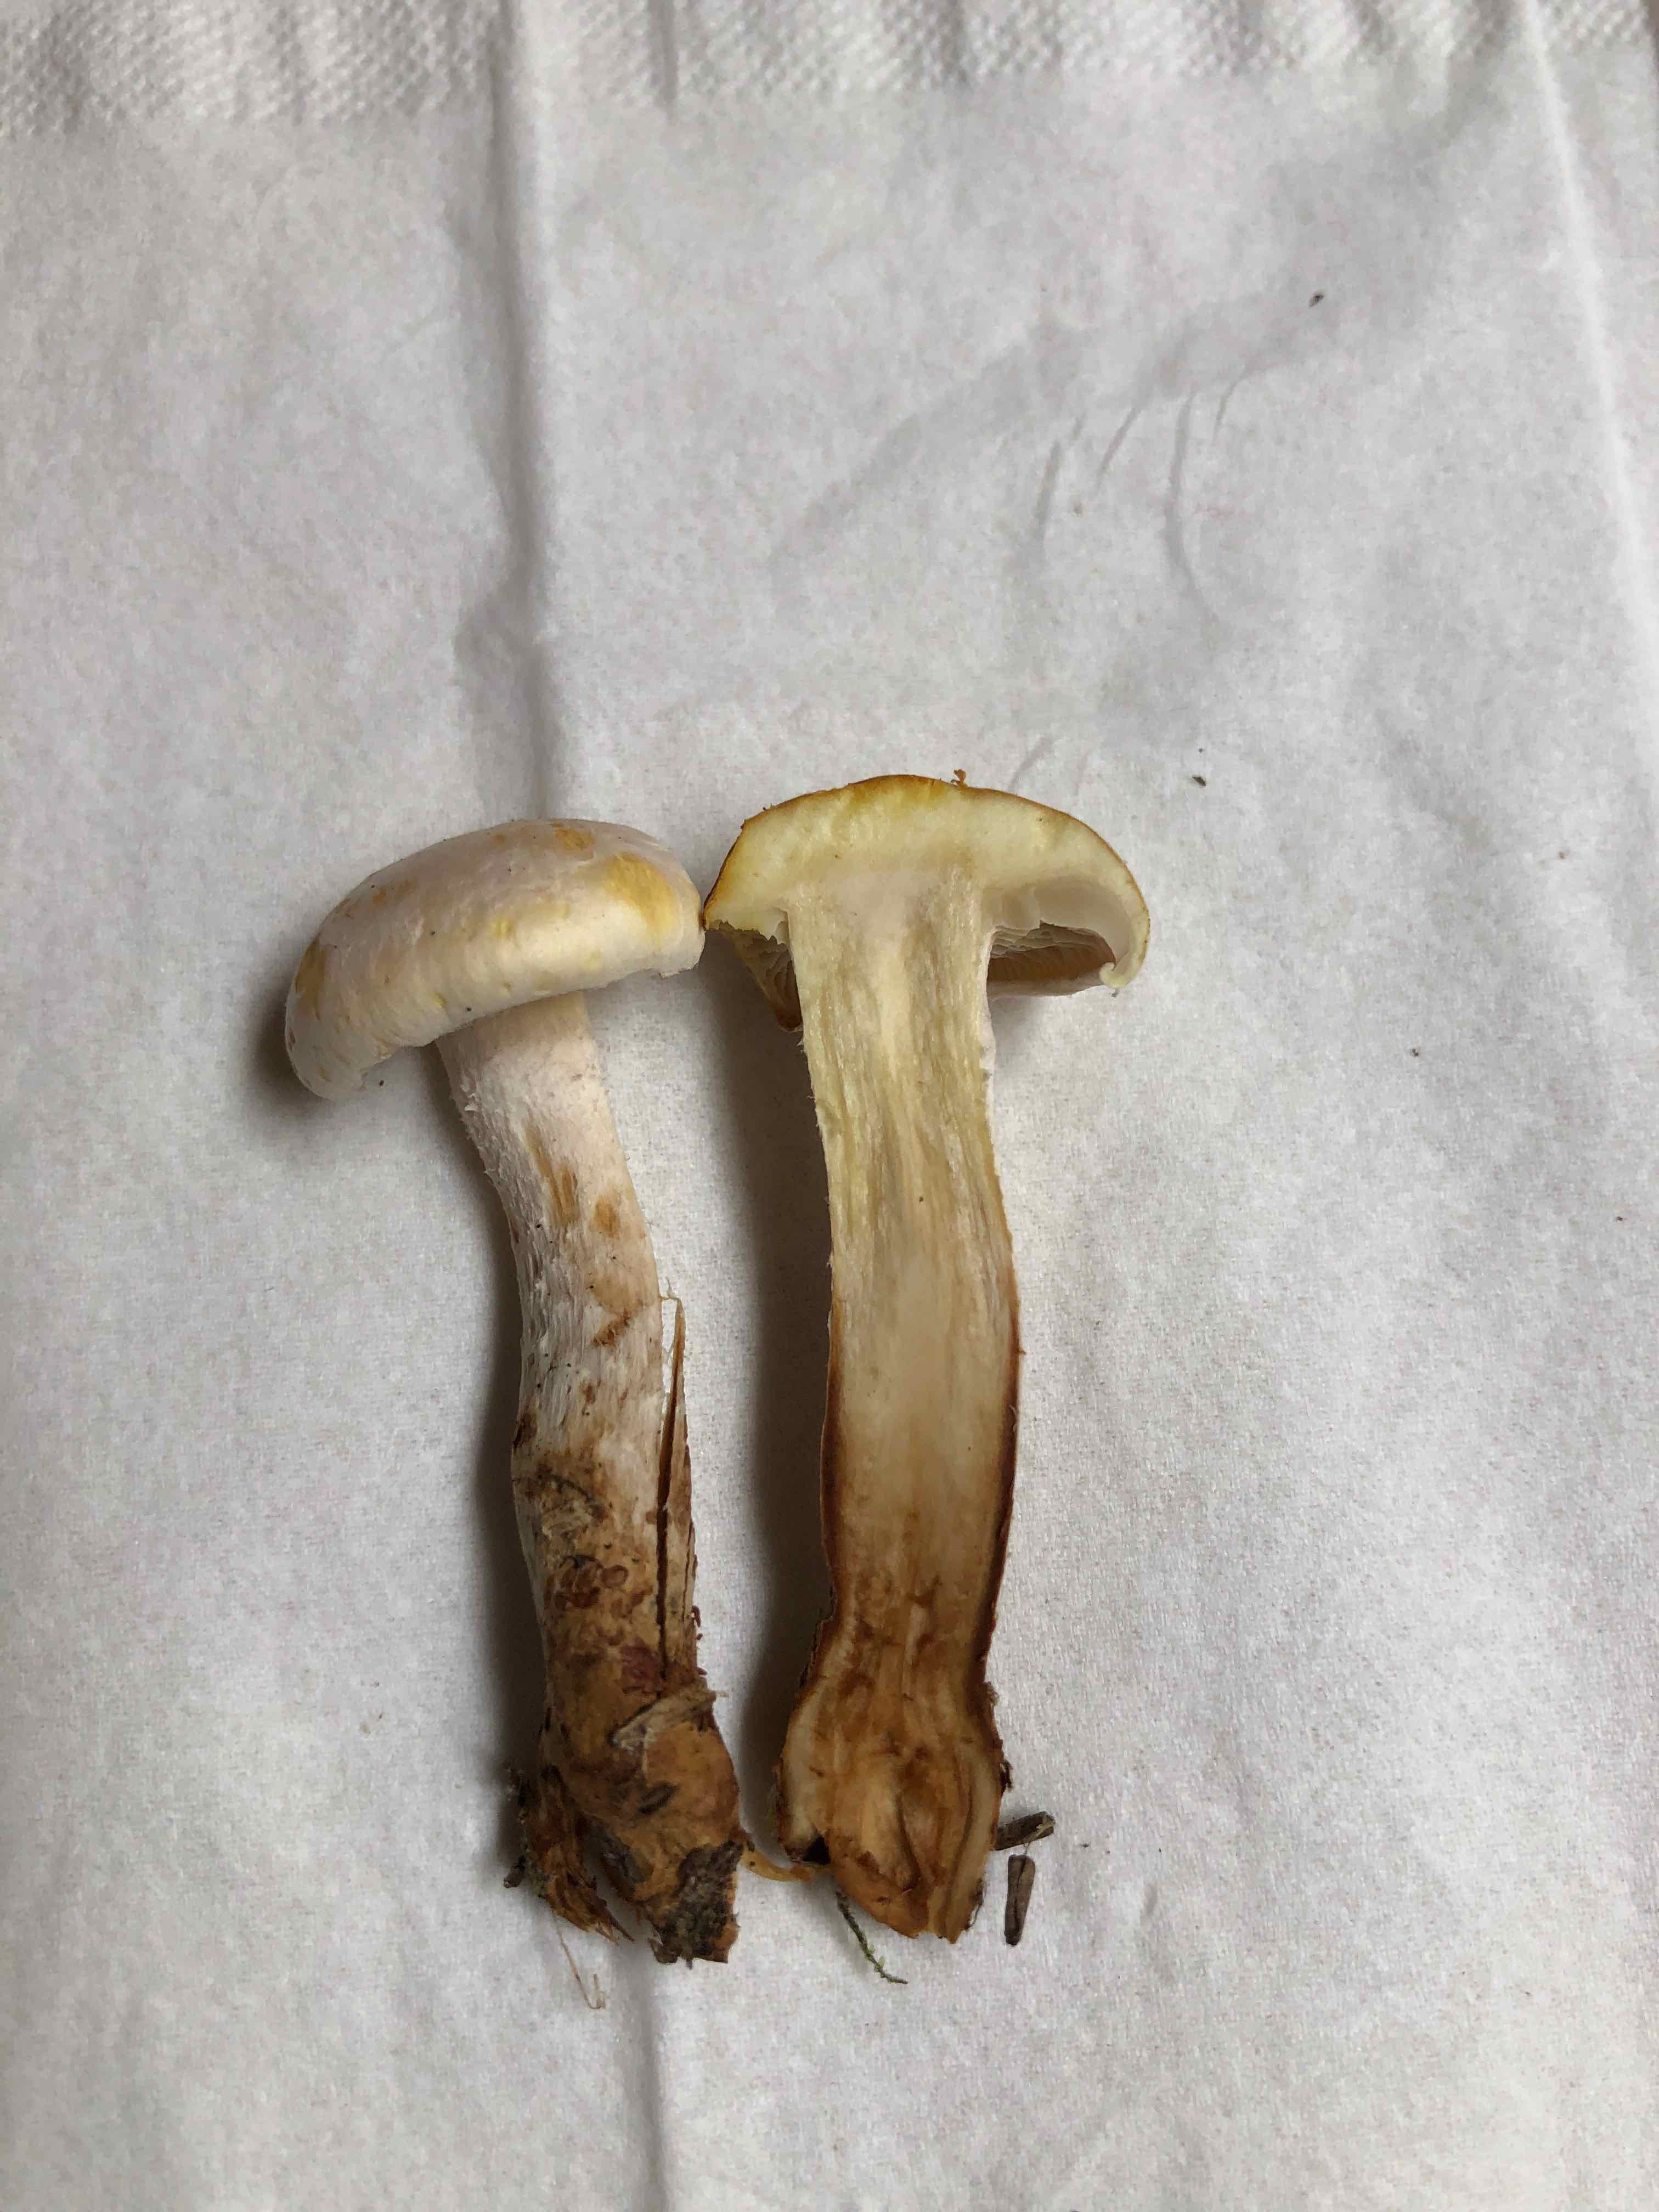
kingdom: Fungi
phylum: Basidiomycota
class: Agaricomycetes
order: Agaricales
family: Strophariaceae
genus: Hypholoma
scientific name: Hypholoma radicosum
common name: pælerods-svovlhat
